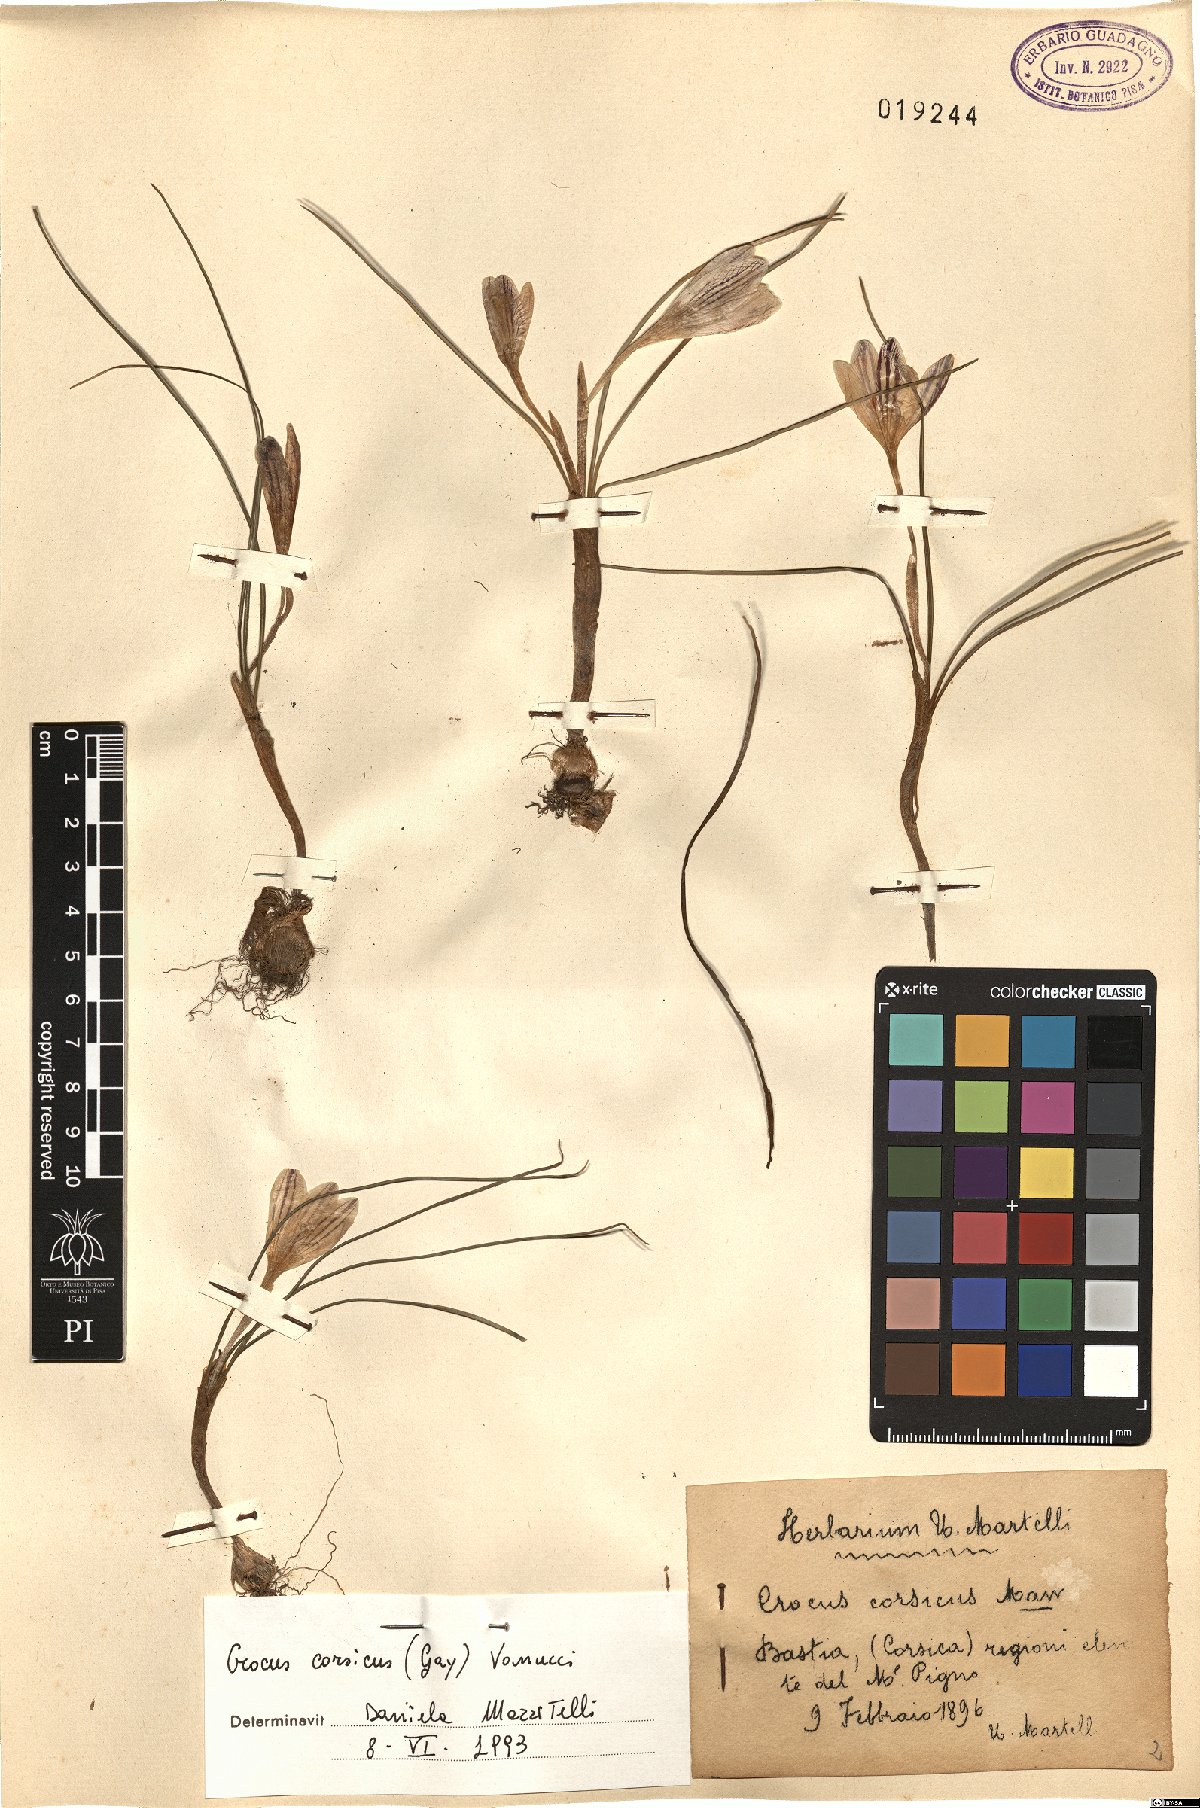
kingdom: Plantae
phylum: Tracheophyta
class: Liliopsida
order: Asparagales
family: Iridaceae
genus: Crocus
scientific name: Crocus corsicus
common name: Corsican crocus
